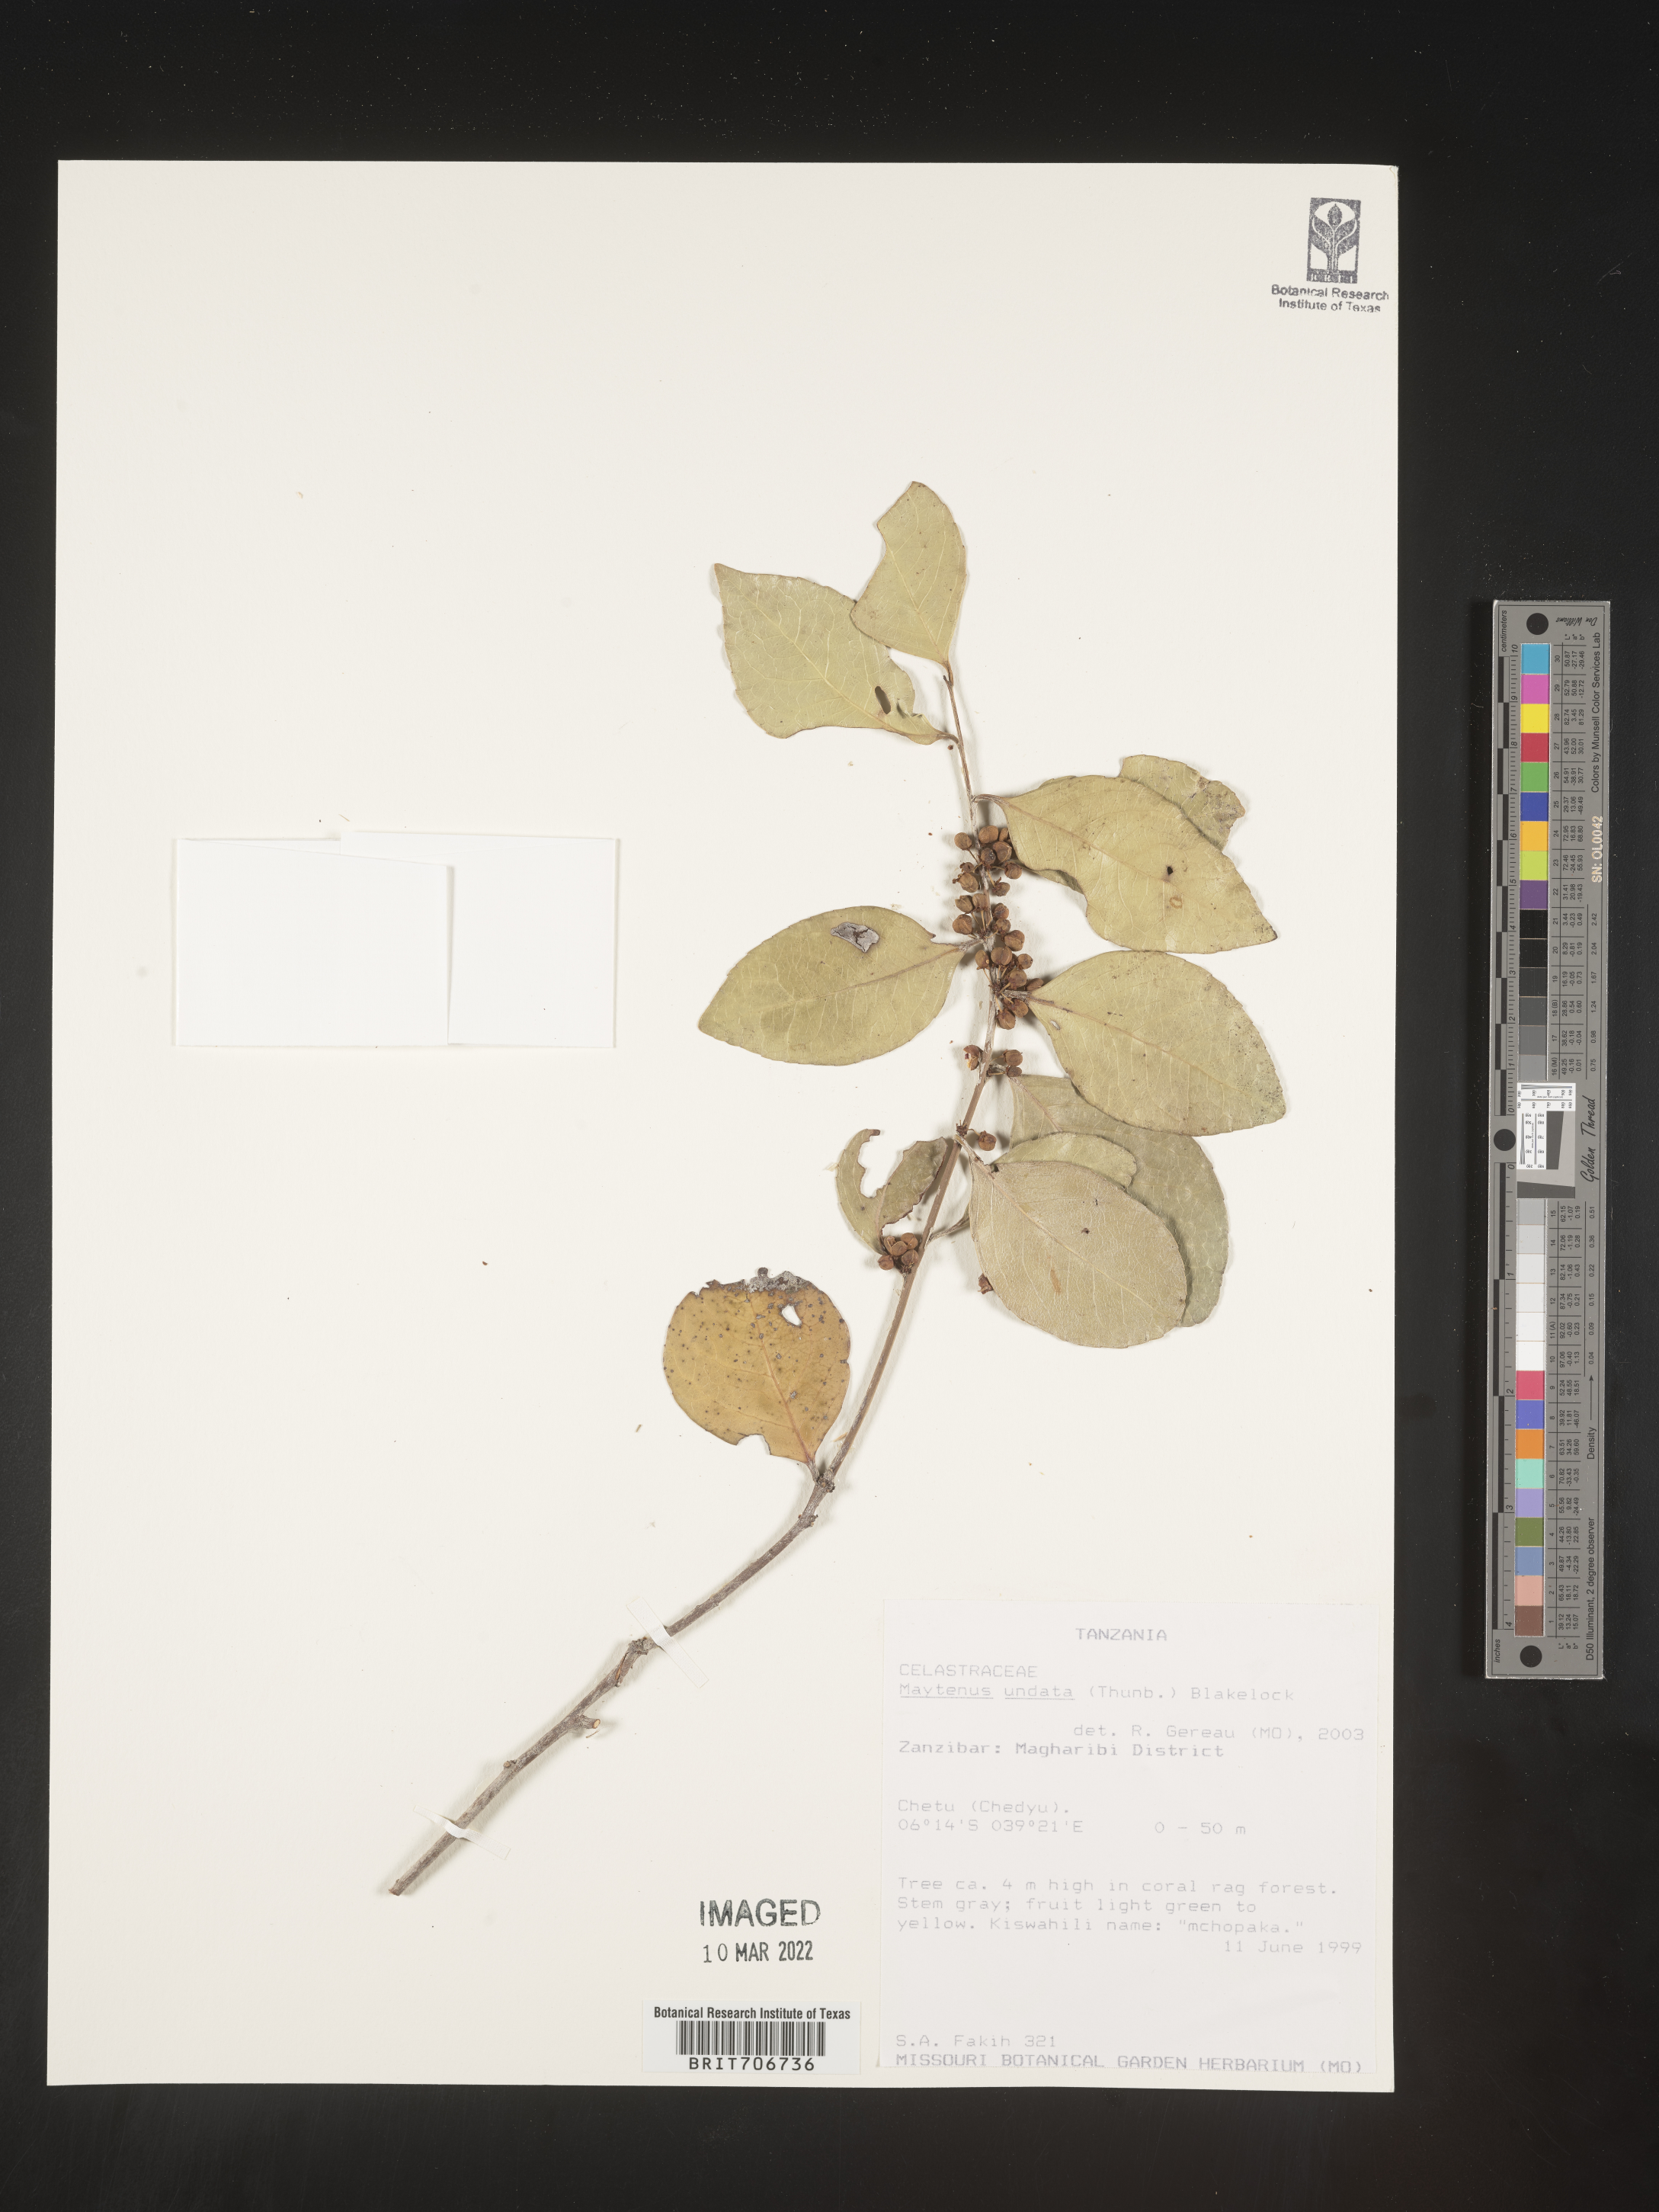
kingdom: Plantae
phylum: Tracheophyta
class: Magnoliopsida
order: Celastrales
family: Celastraceae
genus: Maytenus
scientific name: Maytenus
